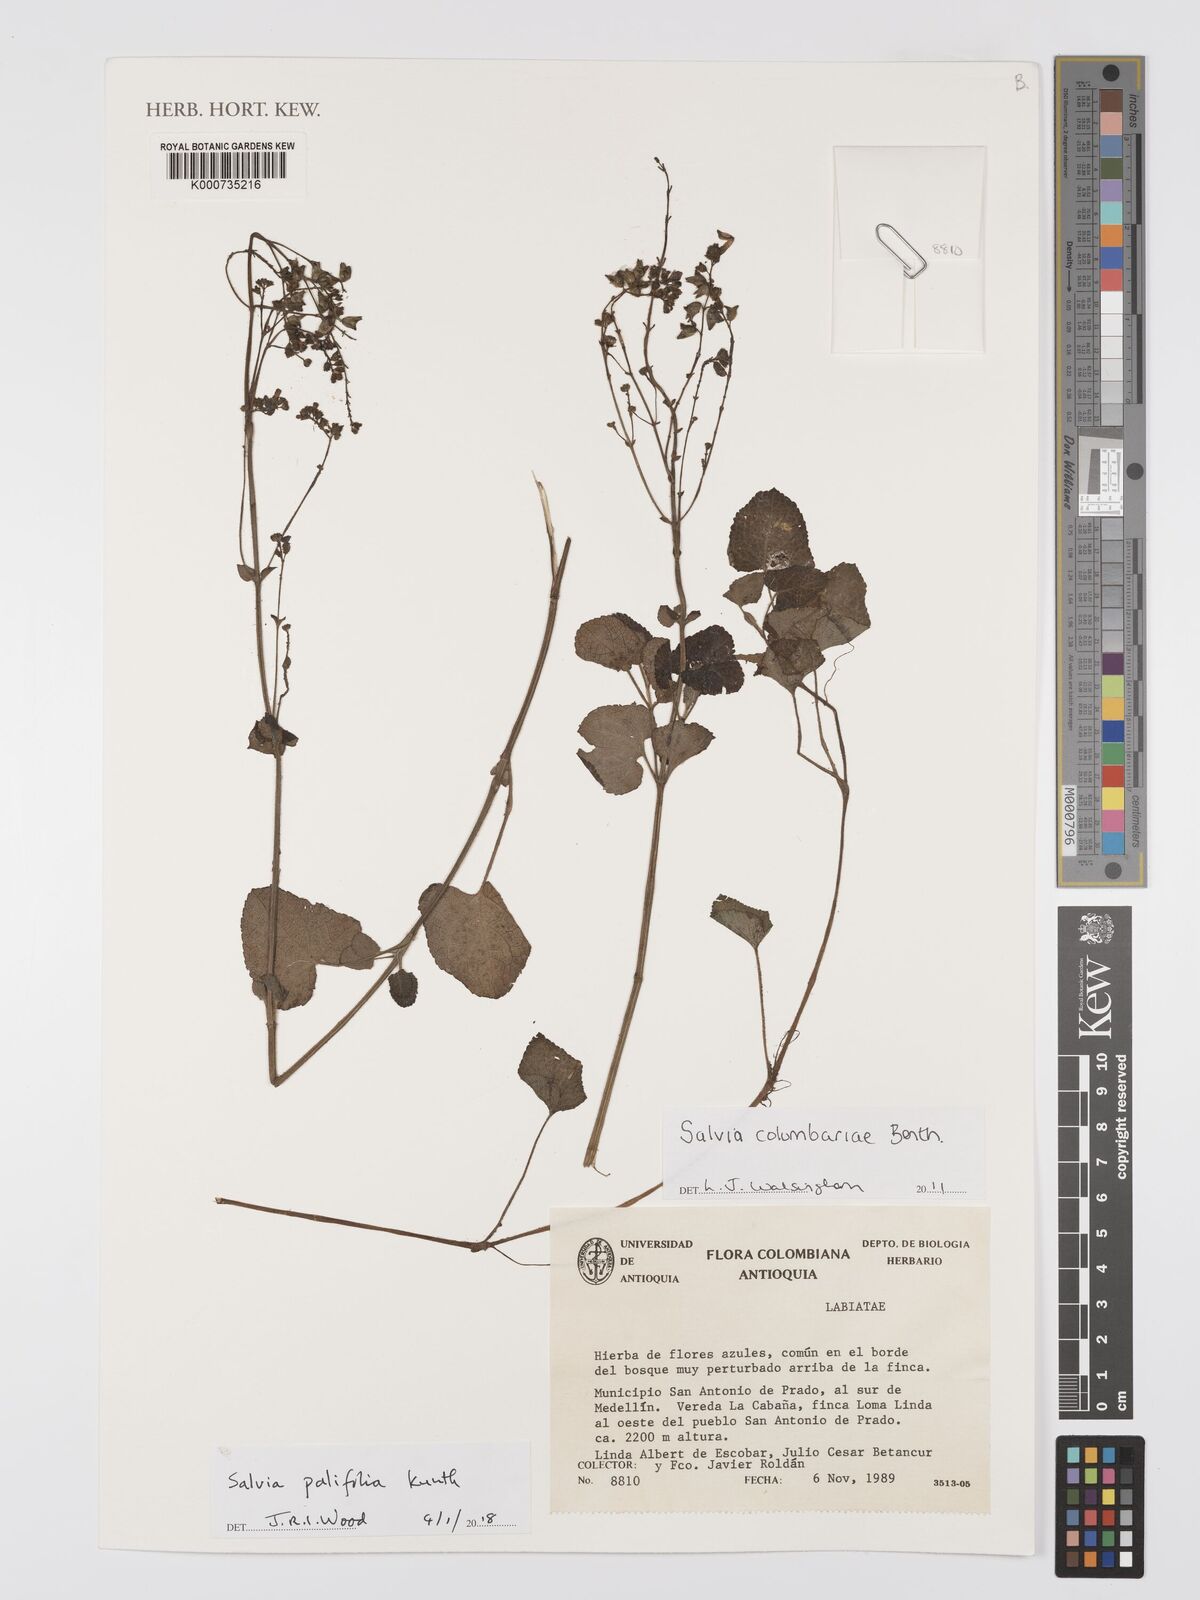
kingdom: Plantae
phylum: Tracheophyta
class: Magnoliopsida
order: Lamiales
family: Lamiaceae
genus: Salvia
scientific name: Salvia palifolia
